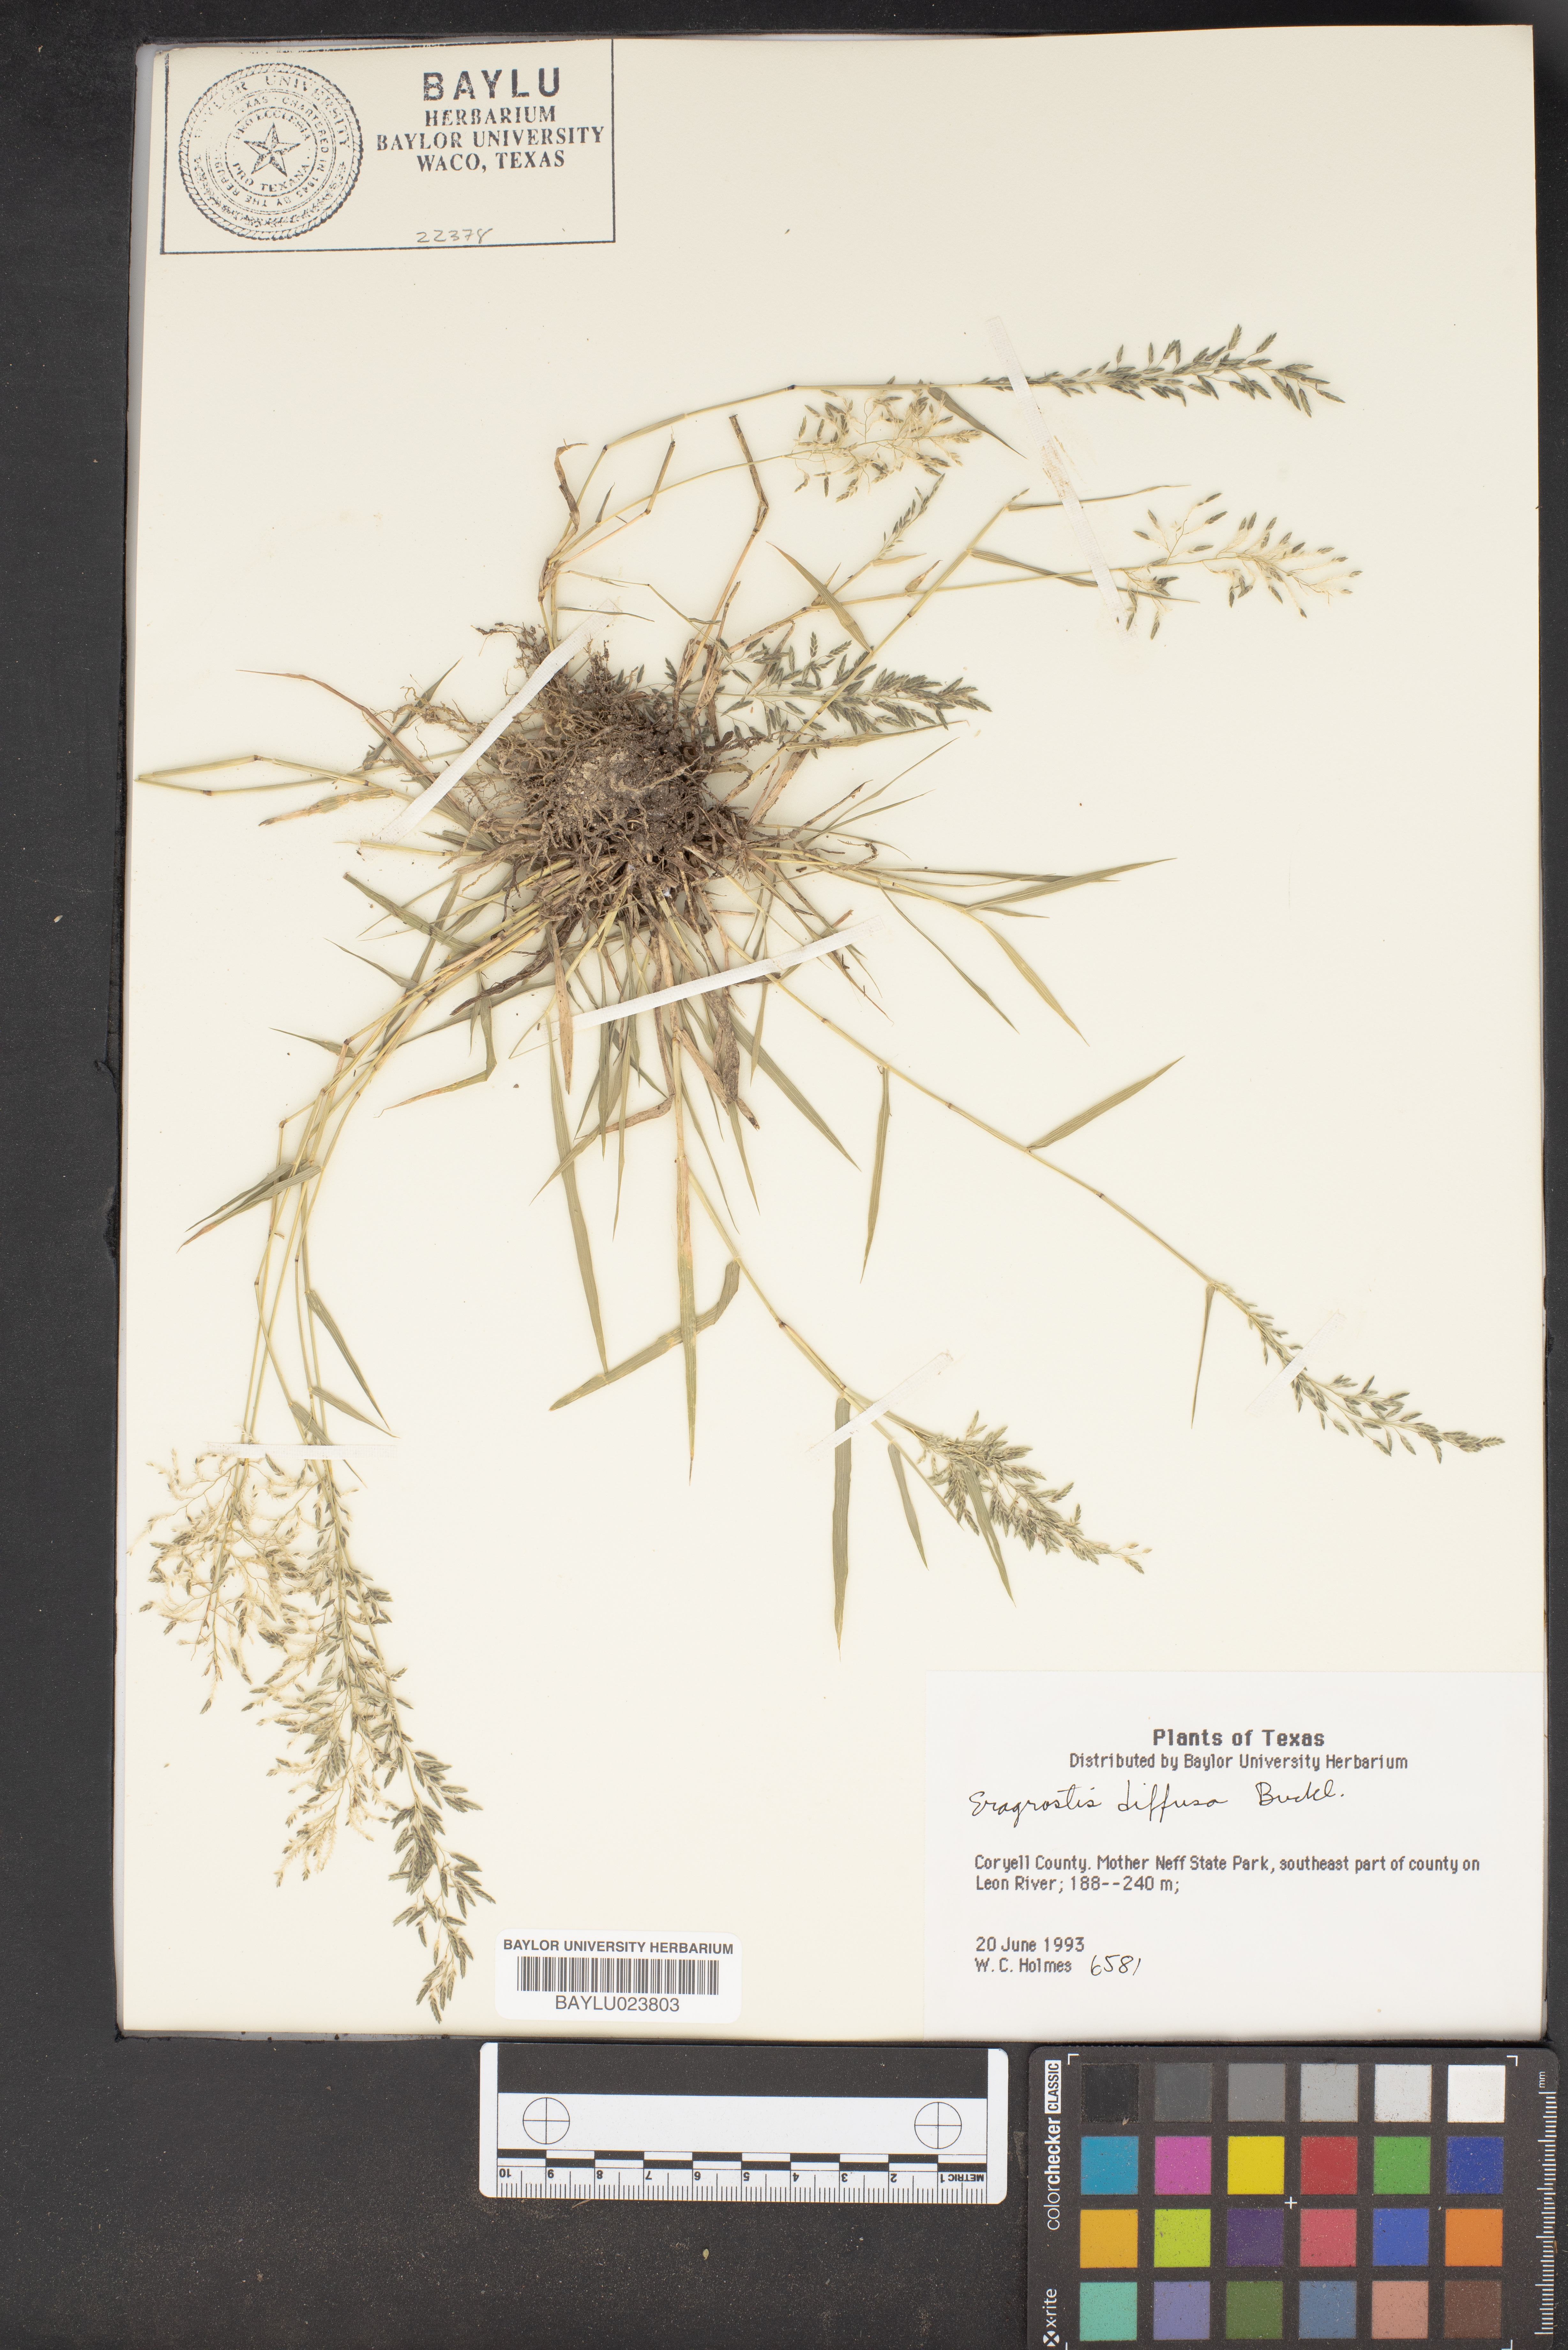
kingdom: Plantae
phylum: Tracheophyta
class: Liliopsida
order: Poales
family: Poaceae
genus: Eragrostis
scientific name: Eragrostis pectinacea
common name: Tufted lovegrass
